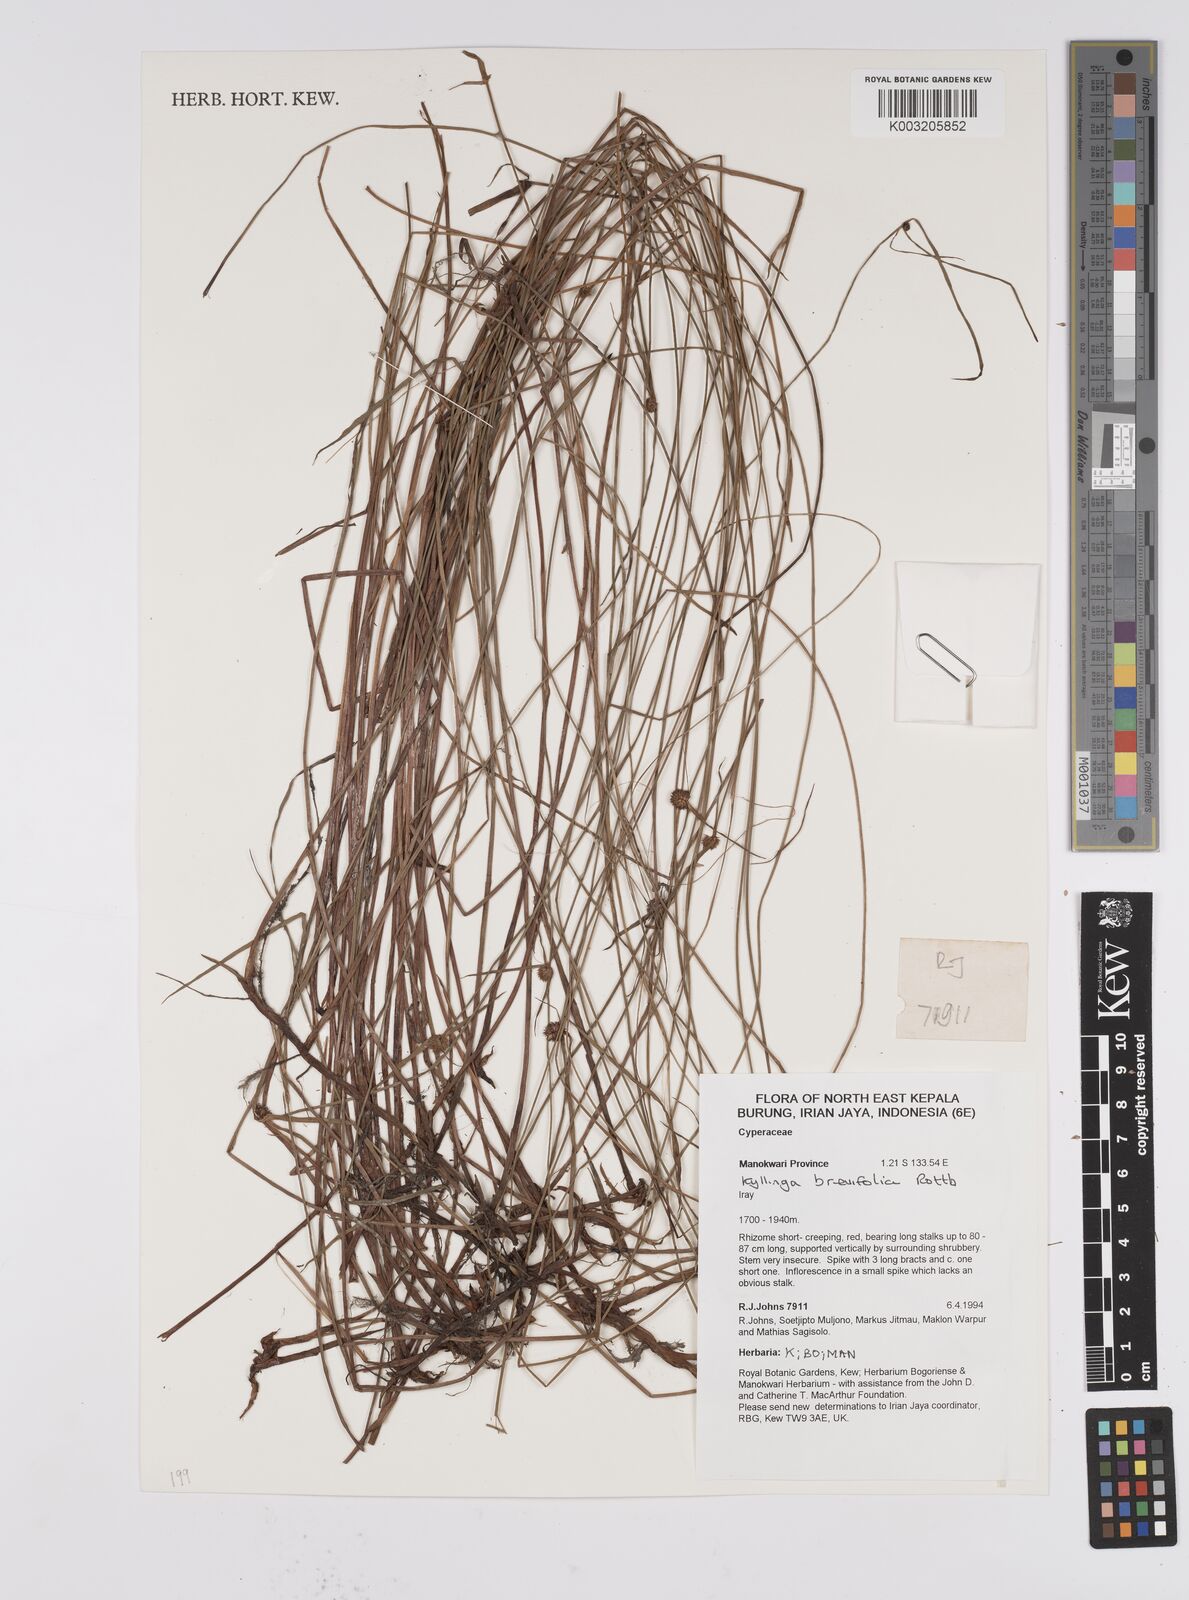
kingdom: Plantae
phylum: Tracheophyta
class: Liliopsida
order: Poales
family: Cyperaceae
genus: Cyperus
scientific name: Cyperus brevifolius
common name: Globe kyllinga
